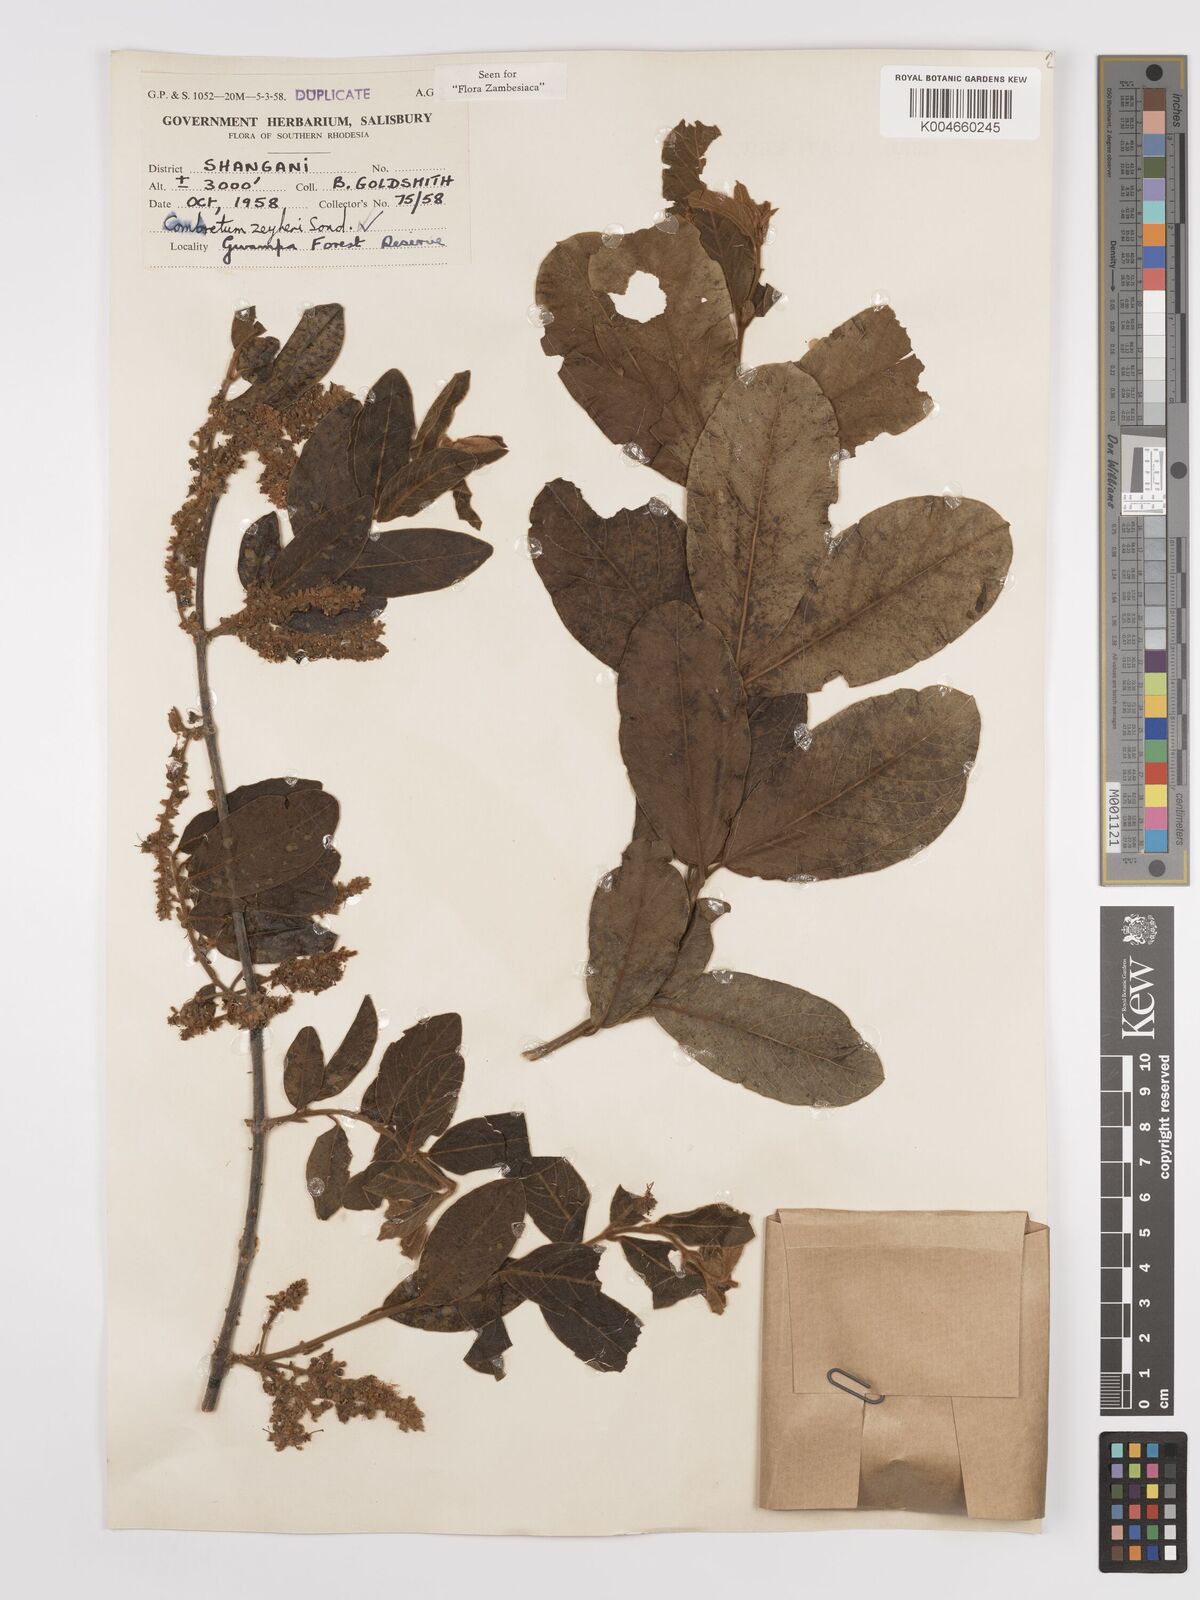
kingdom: Plantae
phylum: Tracheophyta
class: Magnoliopsida
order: Myrtales
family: Combretaceae
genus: Combretum
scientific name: Combretum zeyheri
